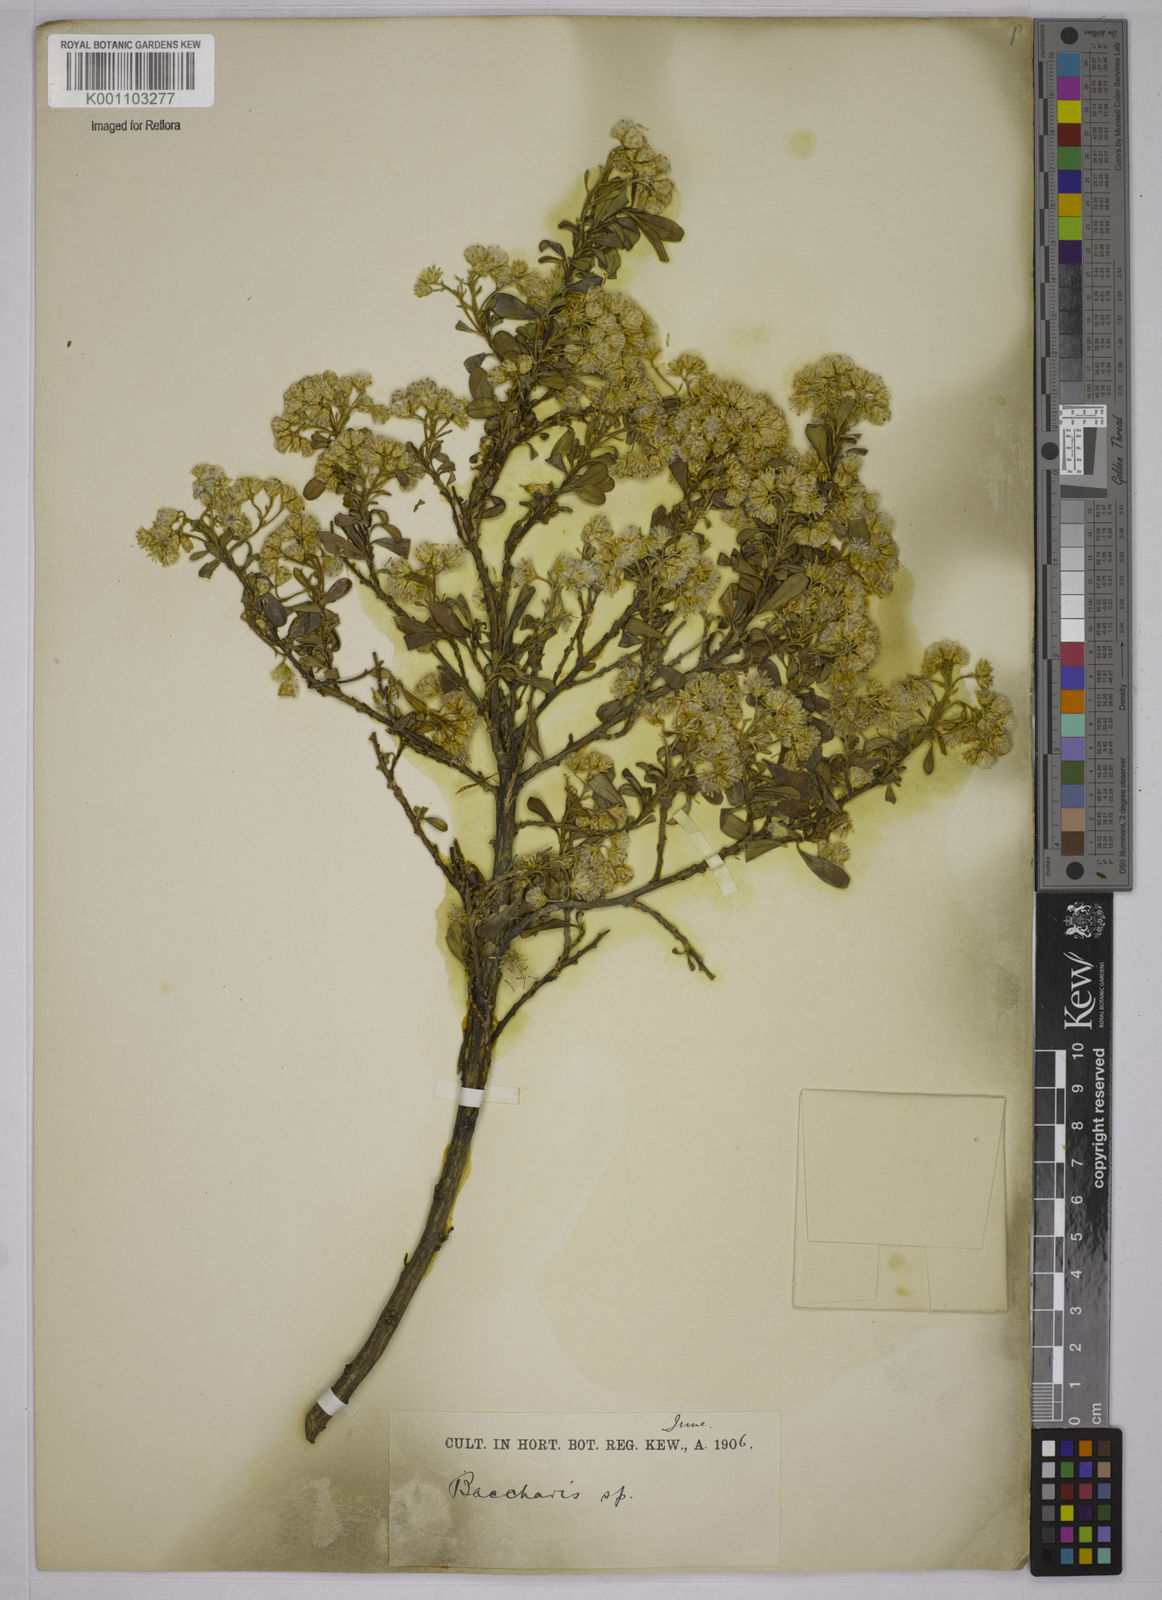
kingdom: Plantae
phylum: Tracheophyta
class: Magnoliopsida
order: Asterales
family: Asteraceae
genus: Baccharis
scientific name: Baccharis
